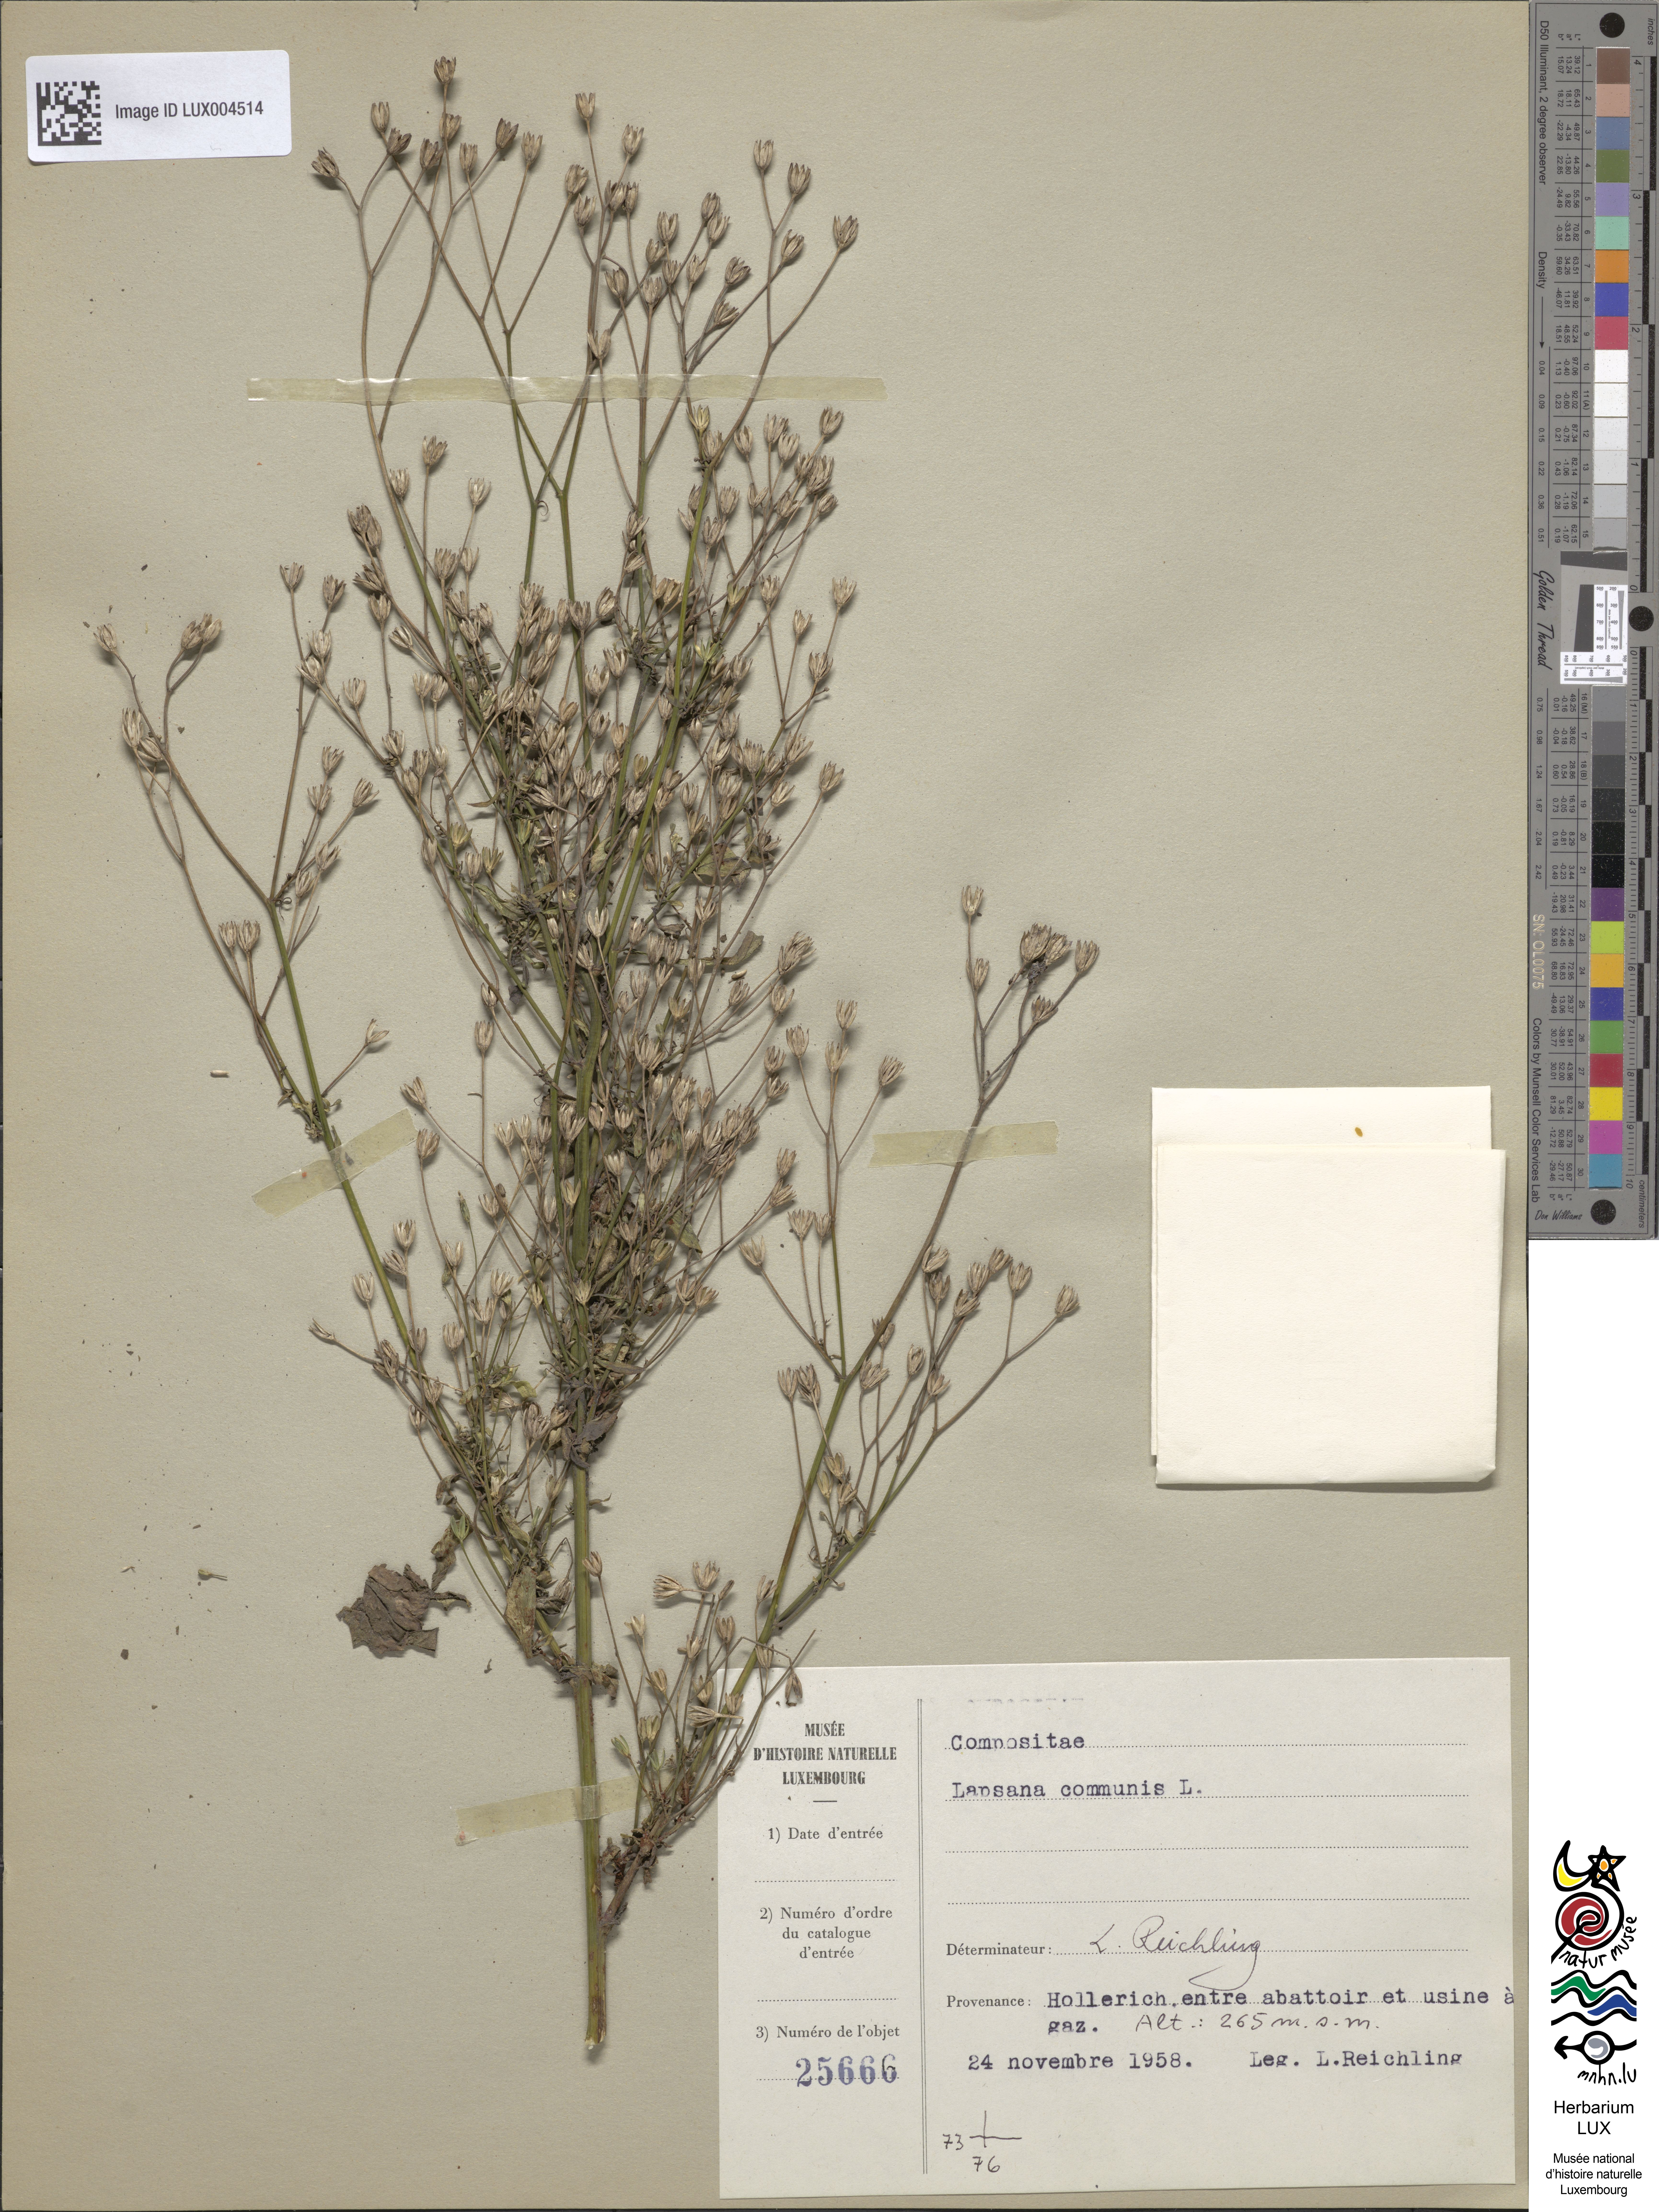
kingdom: Plantae
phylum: Tracheophyta
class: Magnoliopsida
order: Asterales
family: Asteraceae
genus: Lapsana
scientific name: Lapsana communis
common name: Nipplewort
